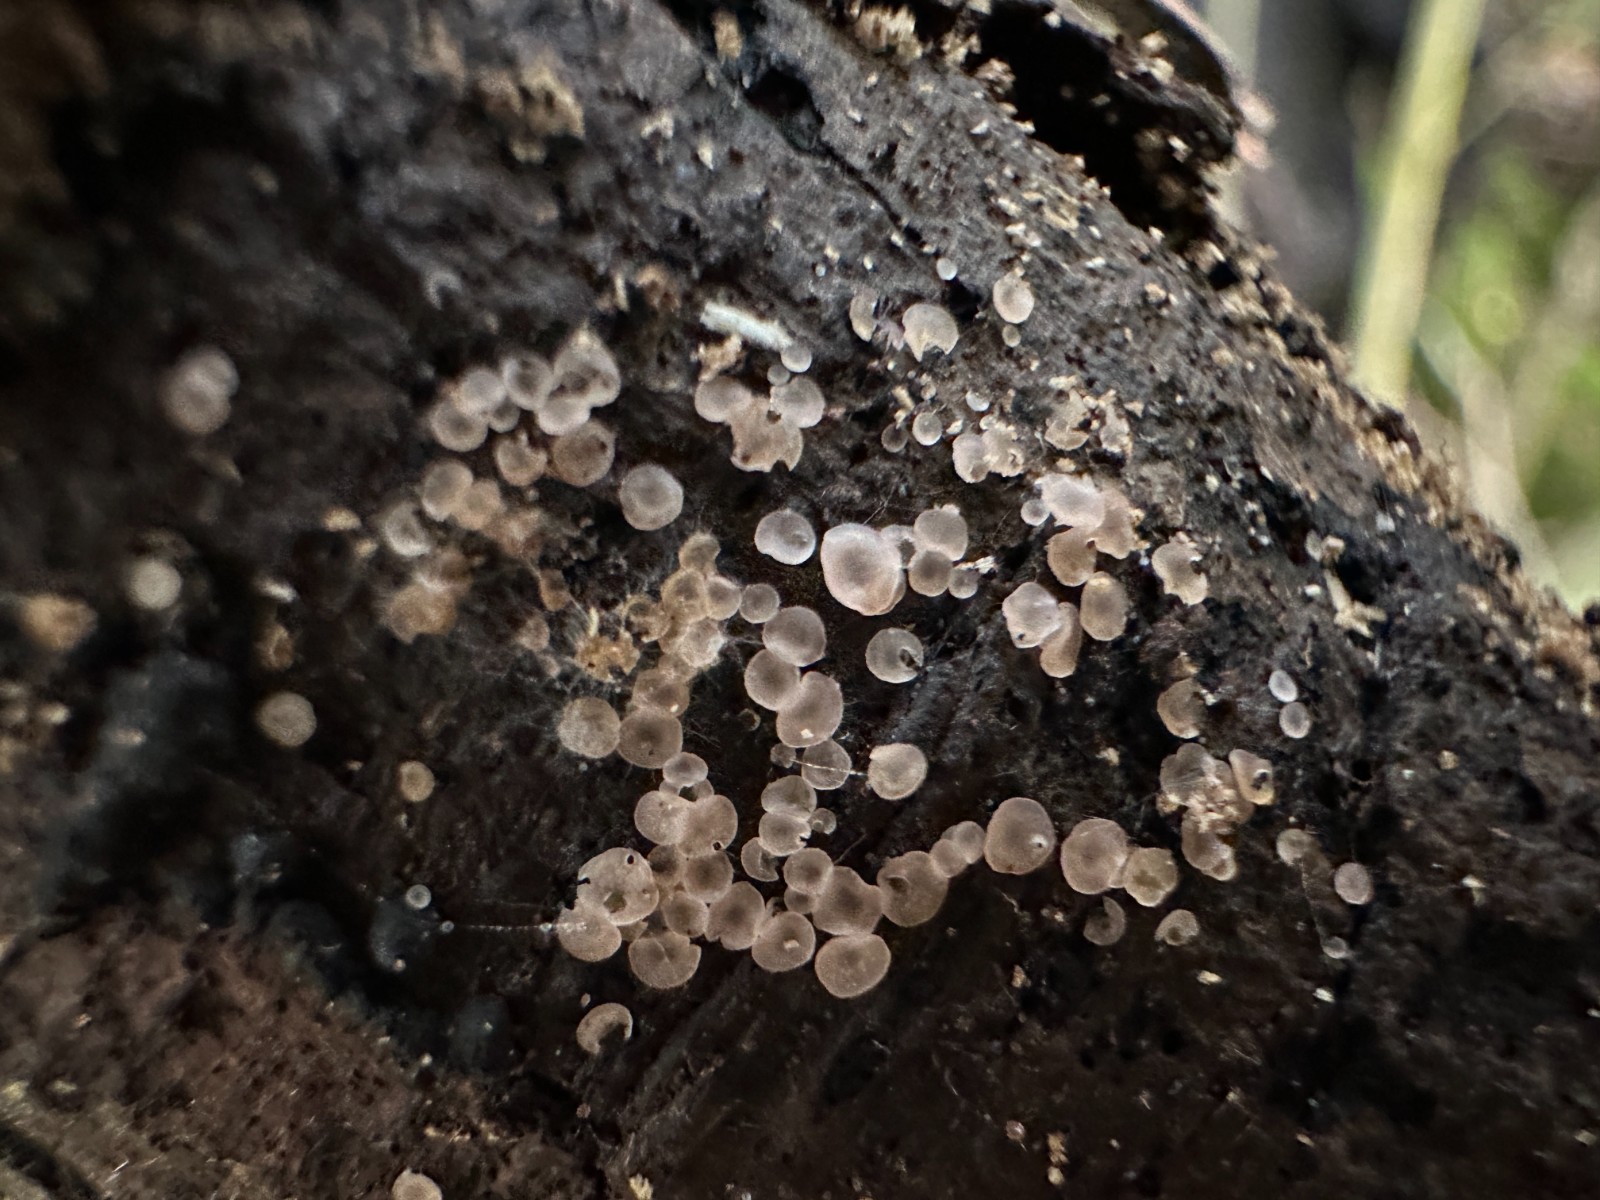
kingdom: Fungi
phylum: Ascomycota
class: Orbiliomycetes
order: Orbiliales
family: Orbiliaceae
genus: Orbilia
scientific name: Orbilia
